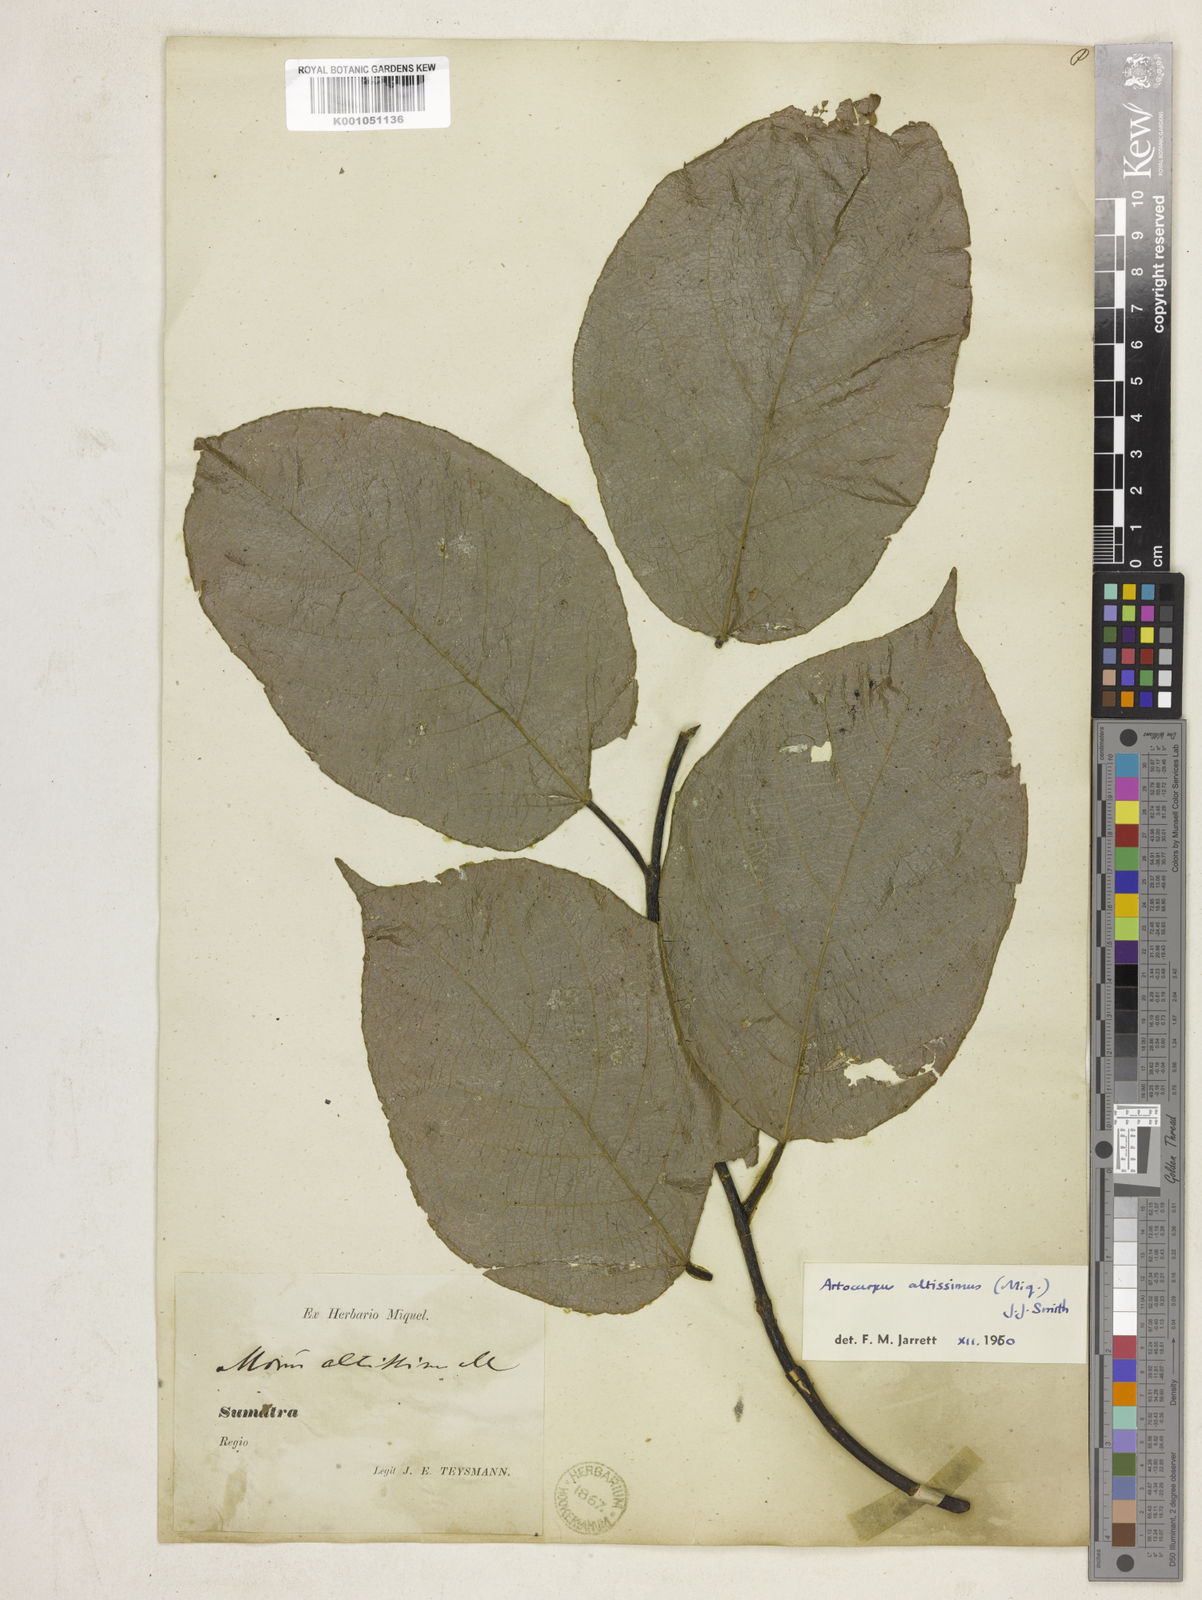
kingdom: Plantae
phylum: Tracheophyta
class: Magnoliopsida
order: Rosales
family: Moraceae
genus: Artocarpus
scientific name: Artocarpus altissimus
